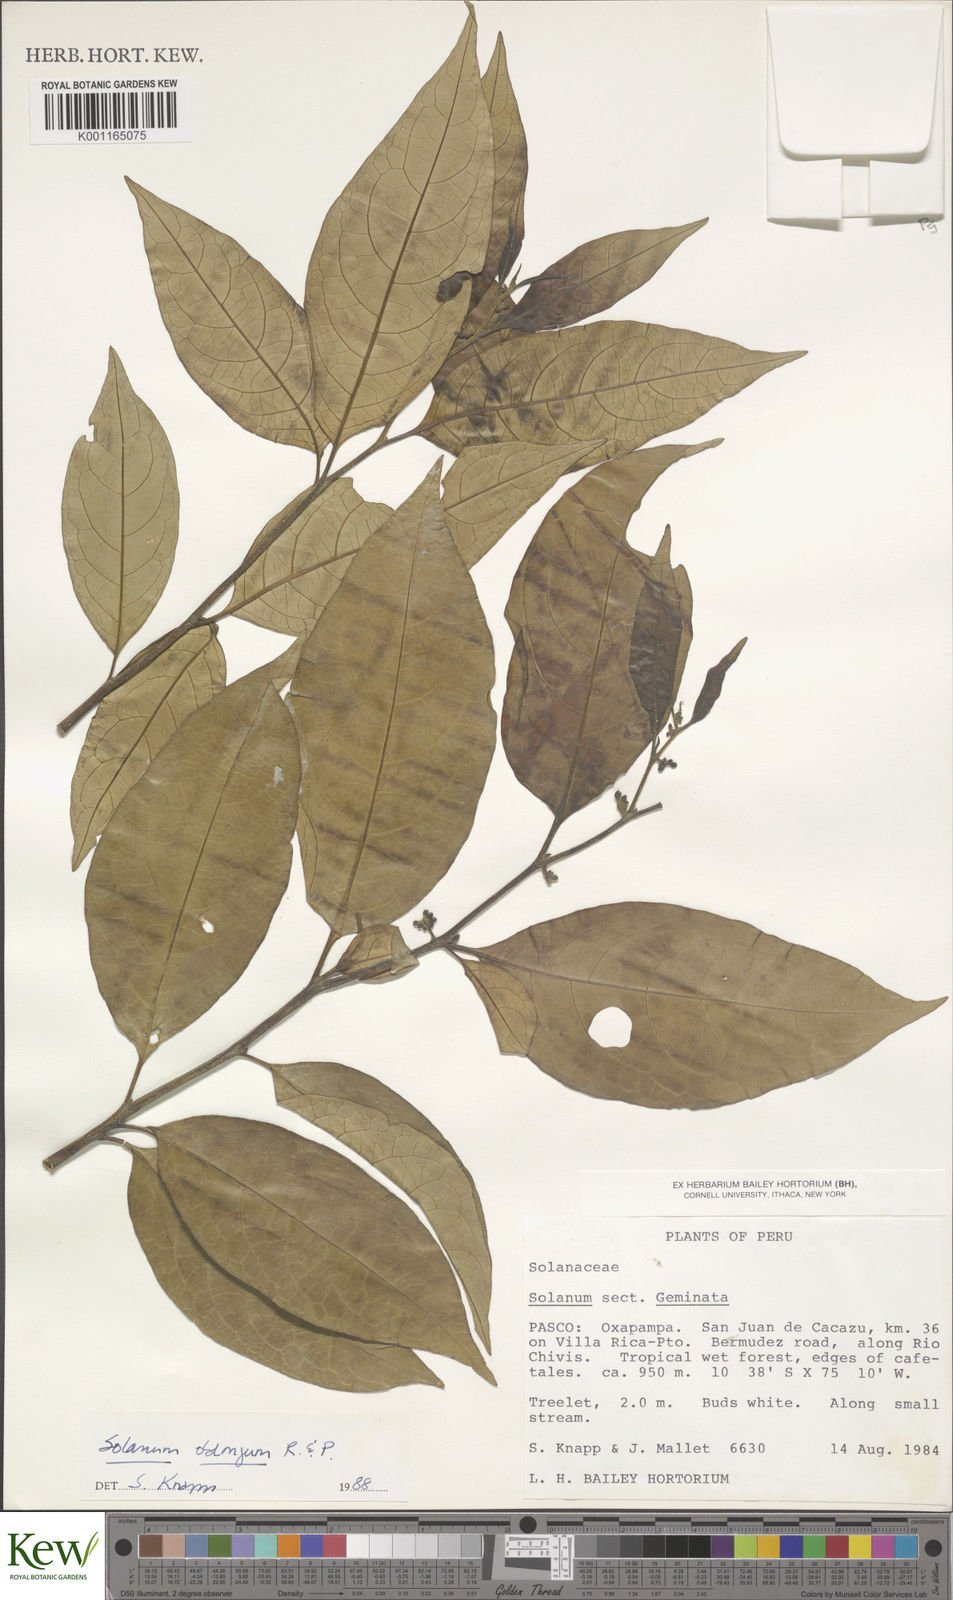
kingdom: Plantae
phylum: Tracheophyta
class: Magnoliopsida
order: Solanales
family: Solanaceae
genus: Solanum
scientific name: Solanum oblongum
